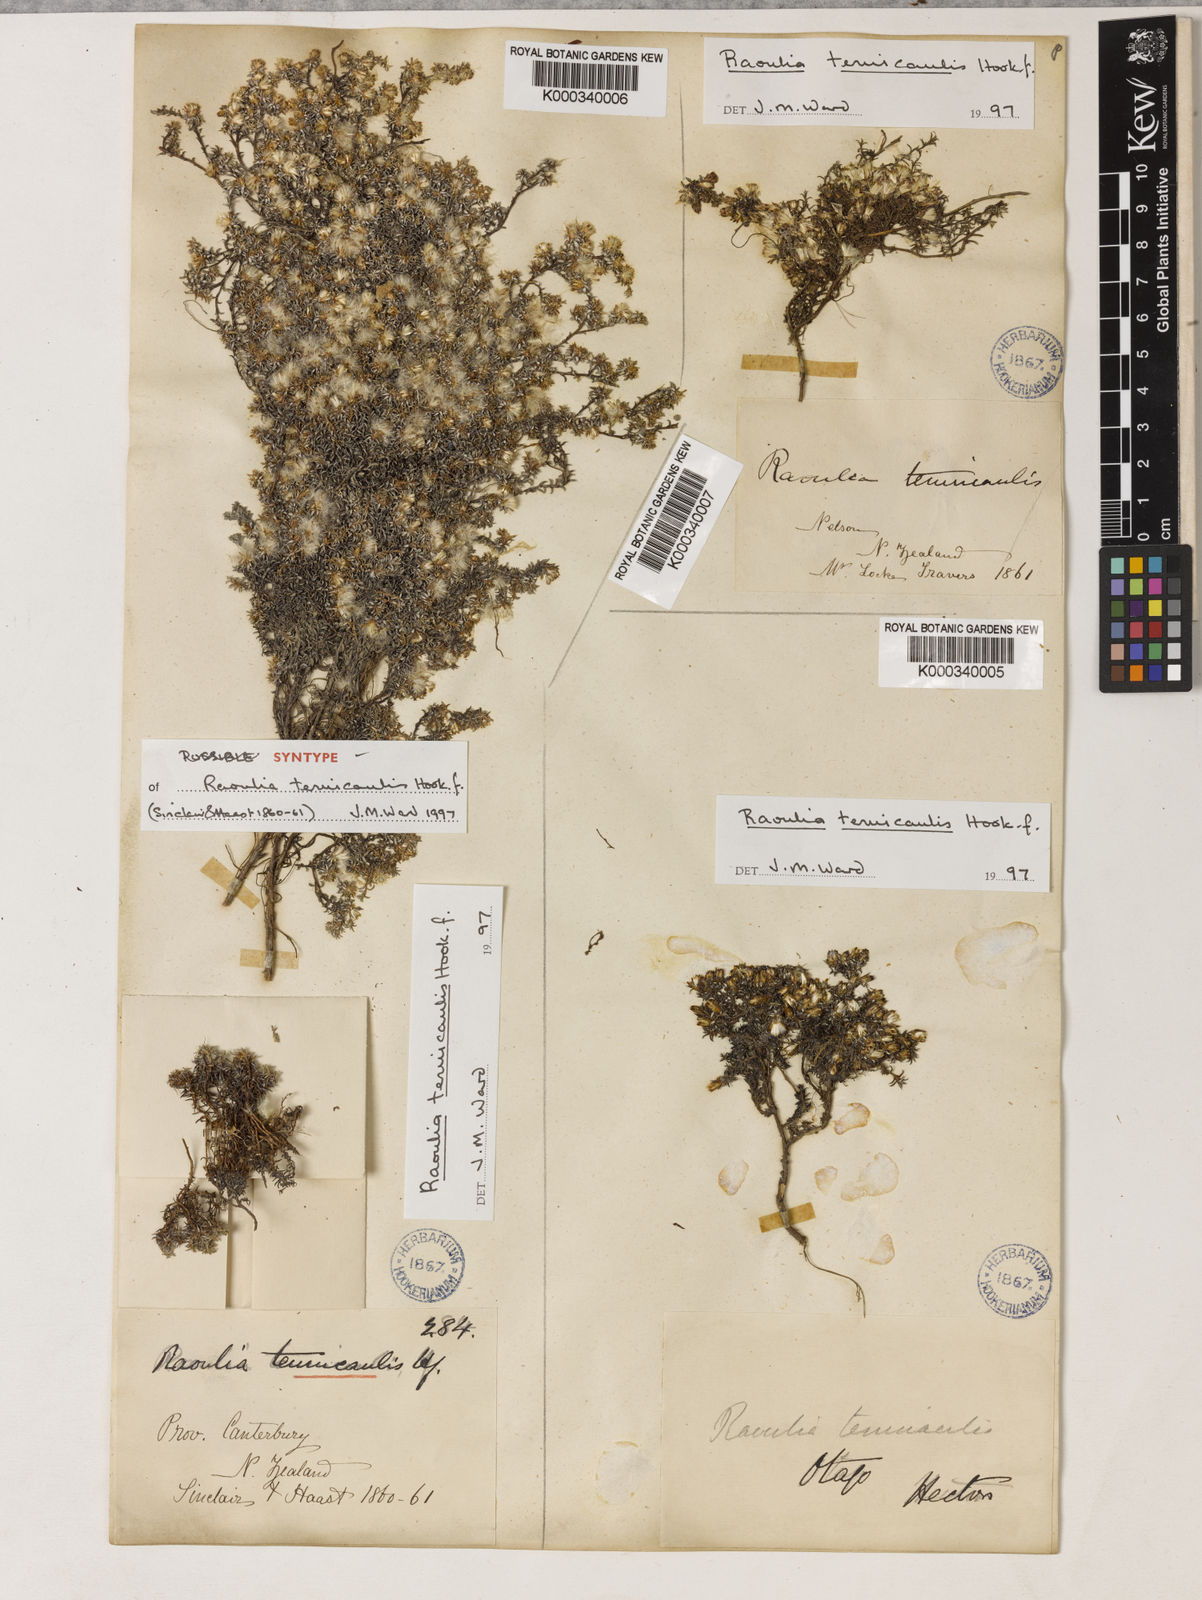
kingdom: Plantae
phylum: Tracheophyta
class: Magnoliopsida
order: Asterales
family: Asteraceae
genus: Raoulia
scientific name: Raoulia tenuicaulis
